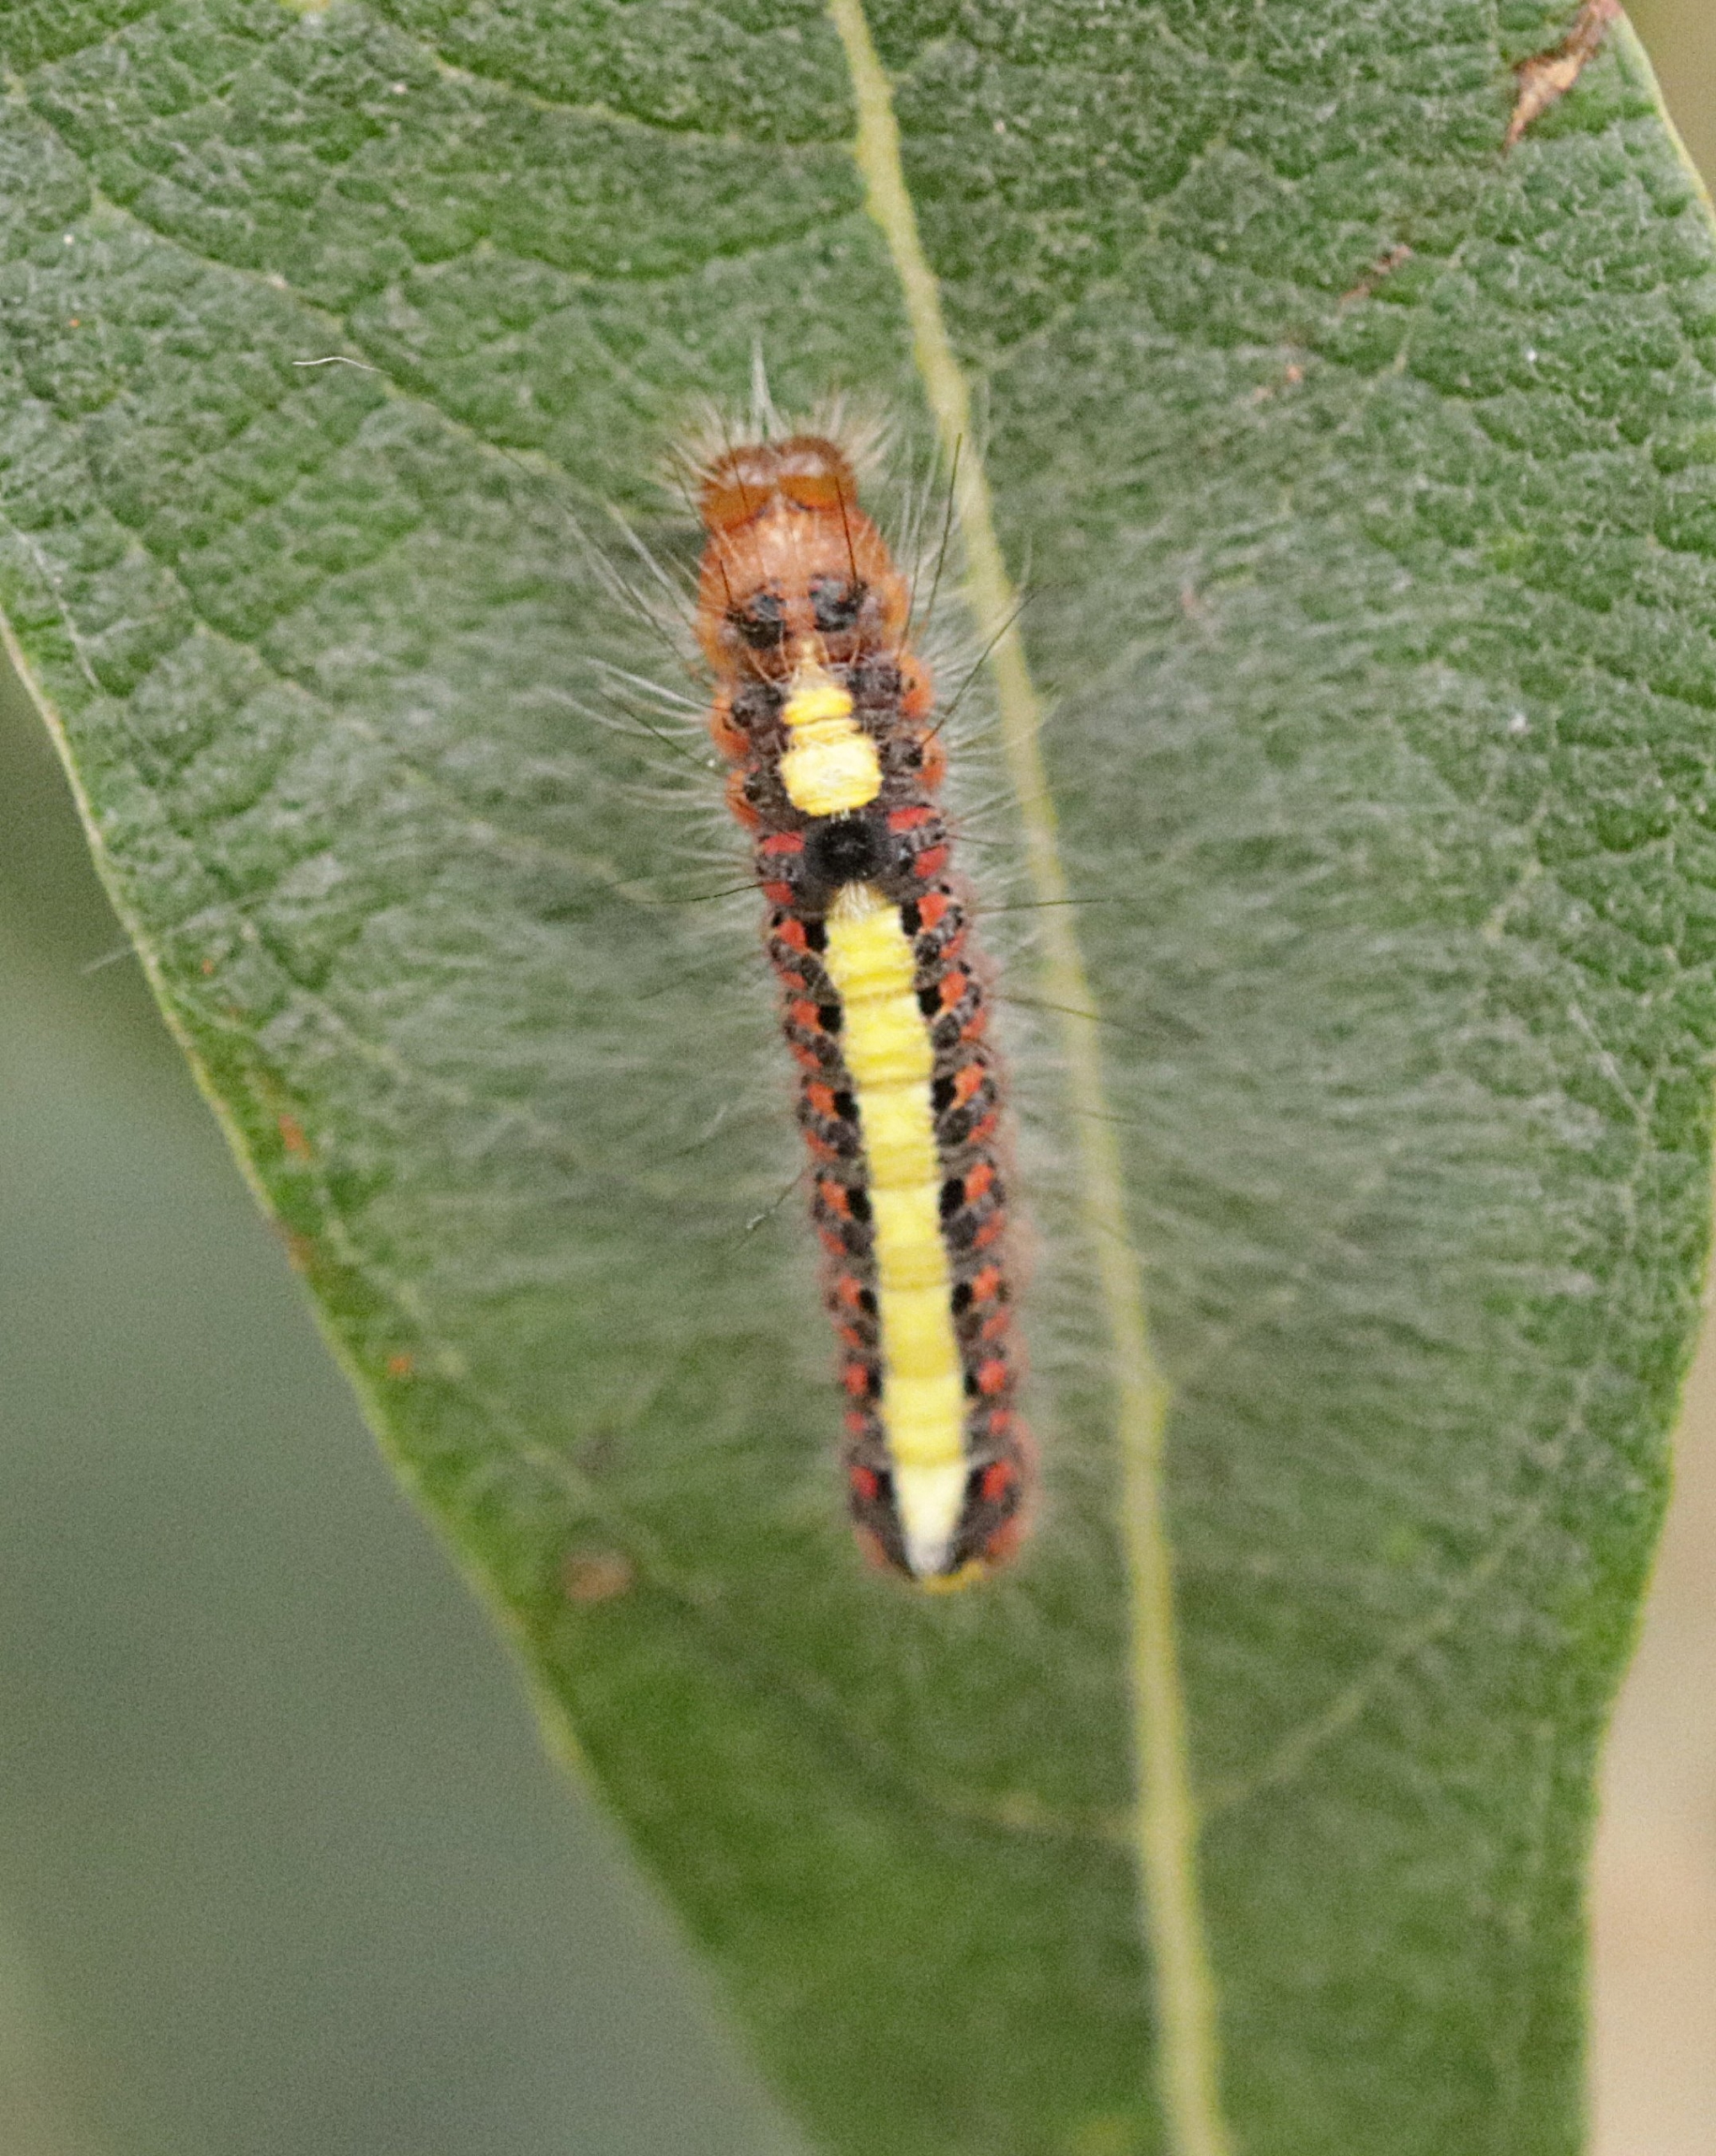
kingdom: Animalia
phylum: Arthropoda
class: Insecta
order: Lepidoptera
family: Noctuidae
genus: Acronicta
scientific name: Acronicta psi
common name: Psi-ugle
